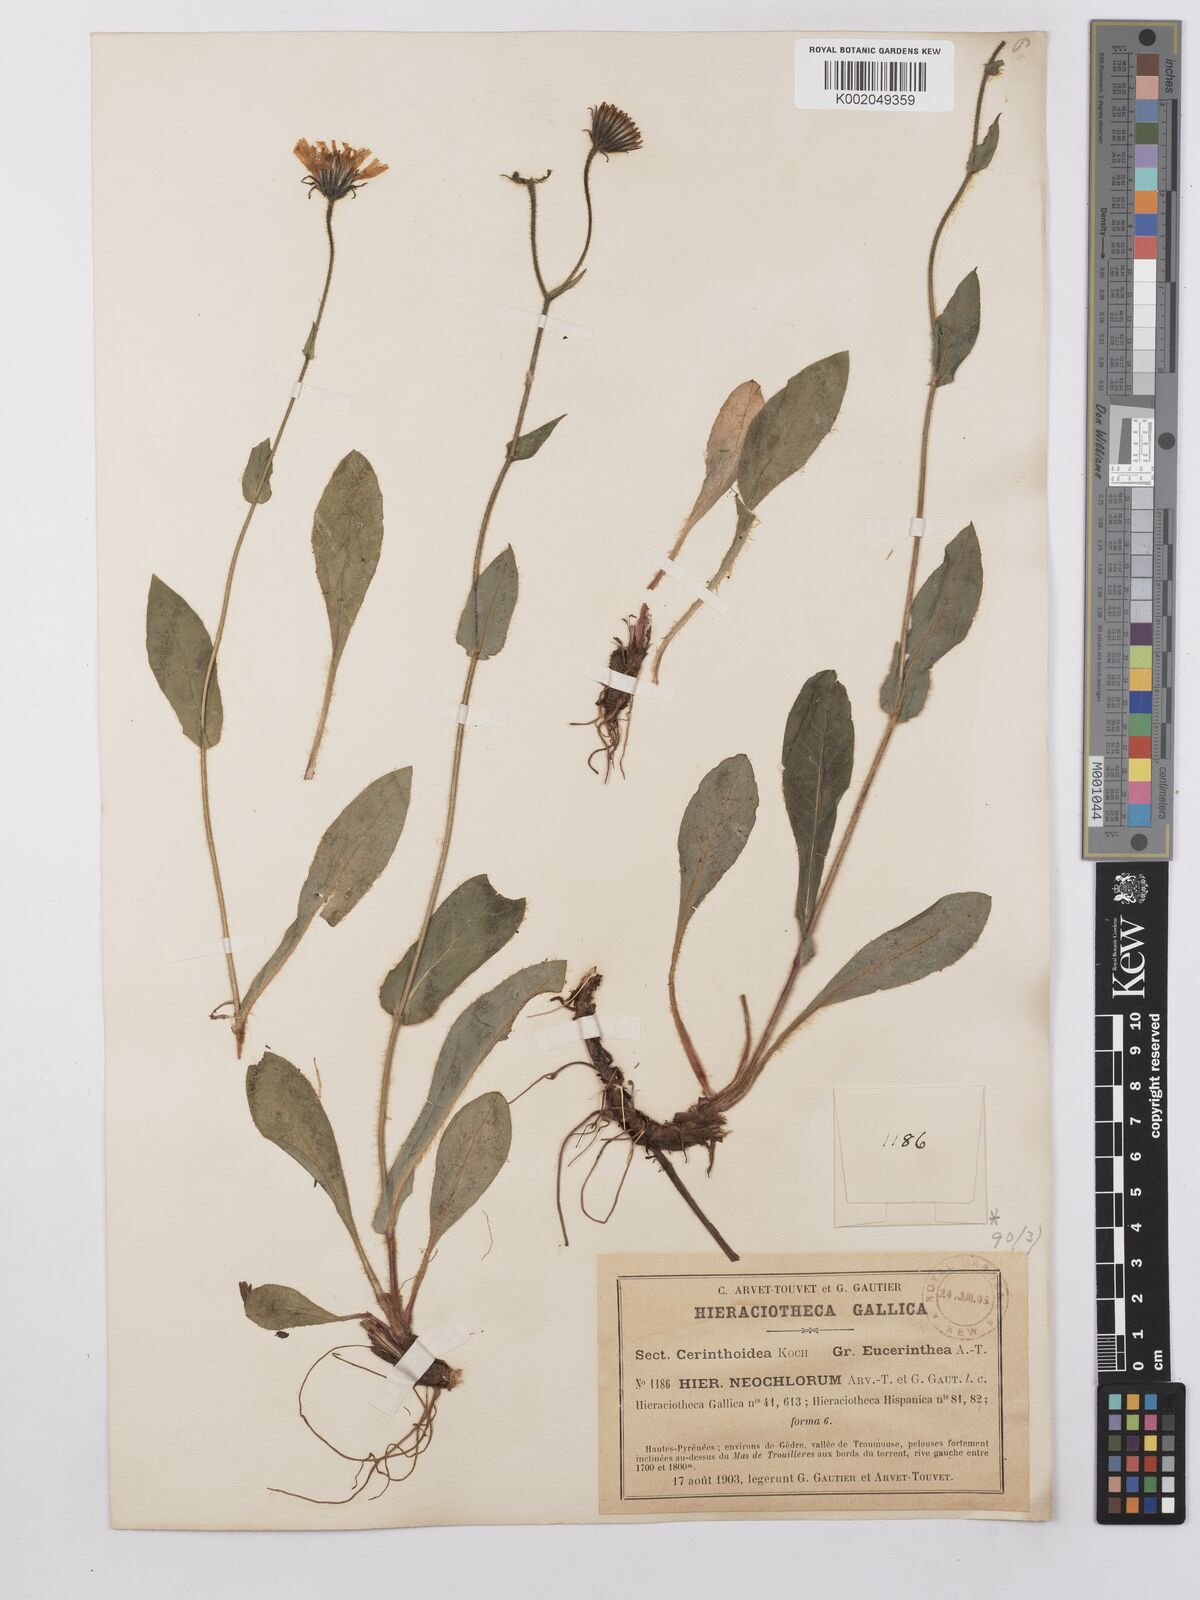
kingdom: Plantae
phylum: Tracheophyta
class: Magnoliopsida
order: Asterales
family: Asteraceae
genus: Hieracium
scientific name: Hieracium cerinthoides
